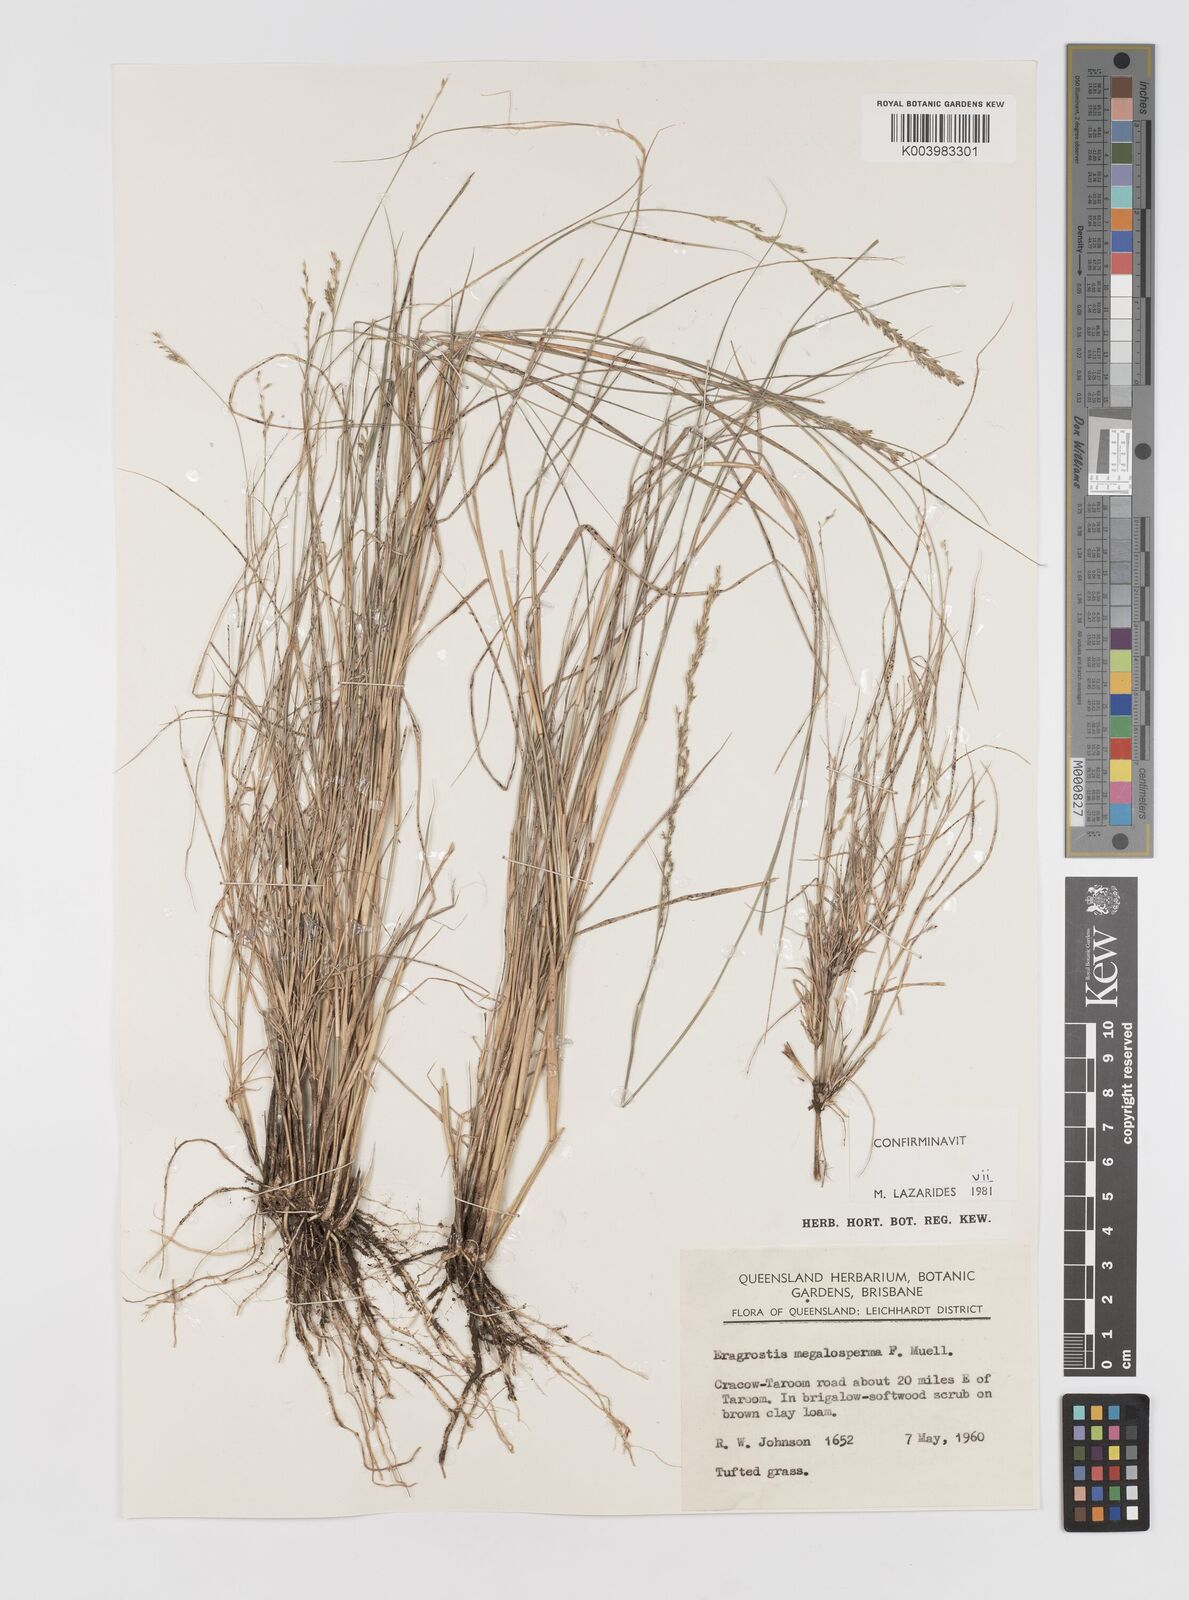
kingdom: Plantae
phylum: Tracheophyta
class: Liliopsida
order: Poales
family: Poaceae
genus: Sporobolus
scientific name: Sporobolus megalospermus
